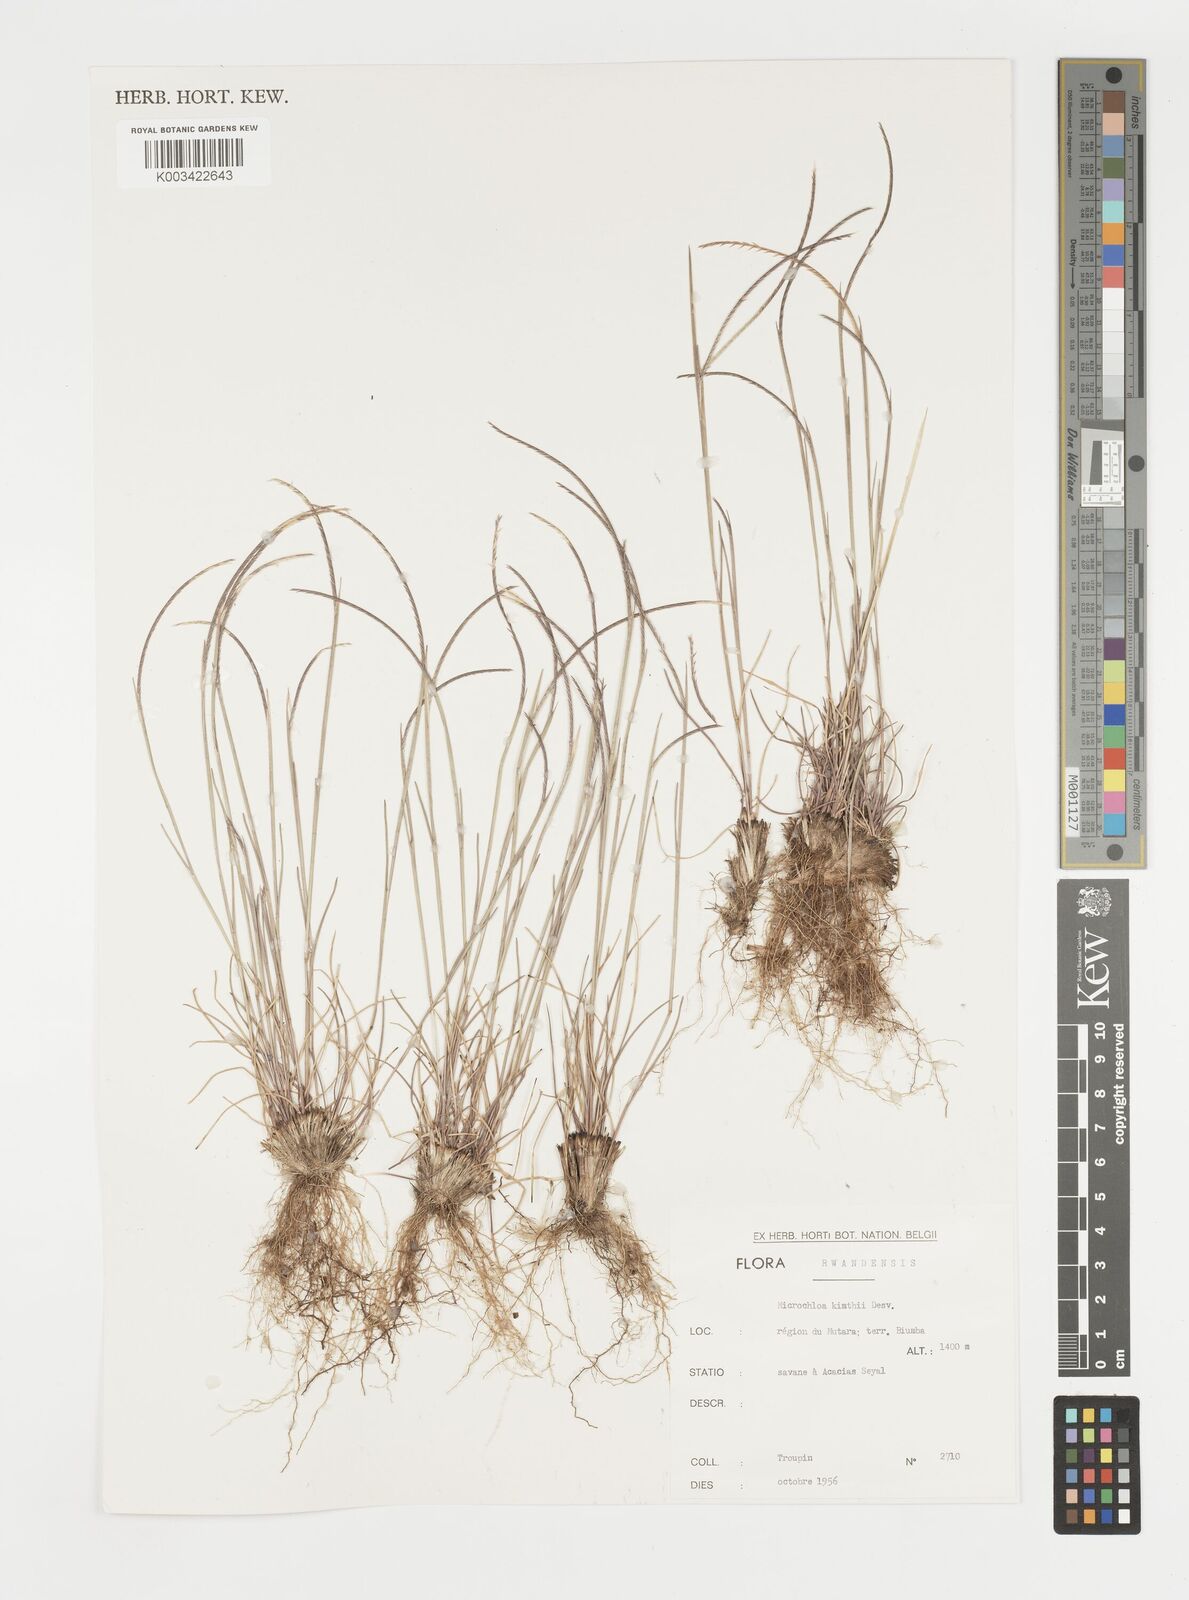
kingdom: Plantae
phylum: Tracheophyta
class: Liliopsida
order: Poales
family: Poaceae
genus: Microchloa
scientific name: Microchloa kunthii
